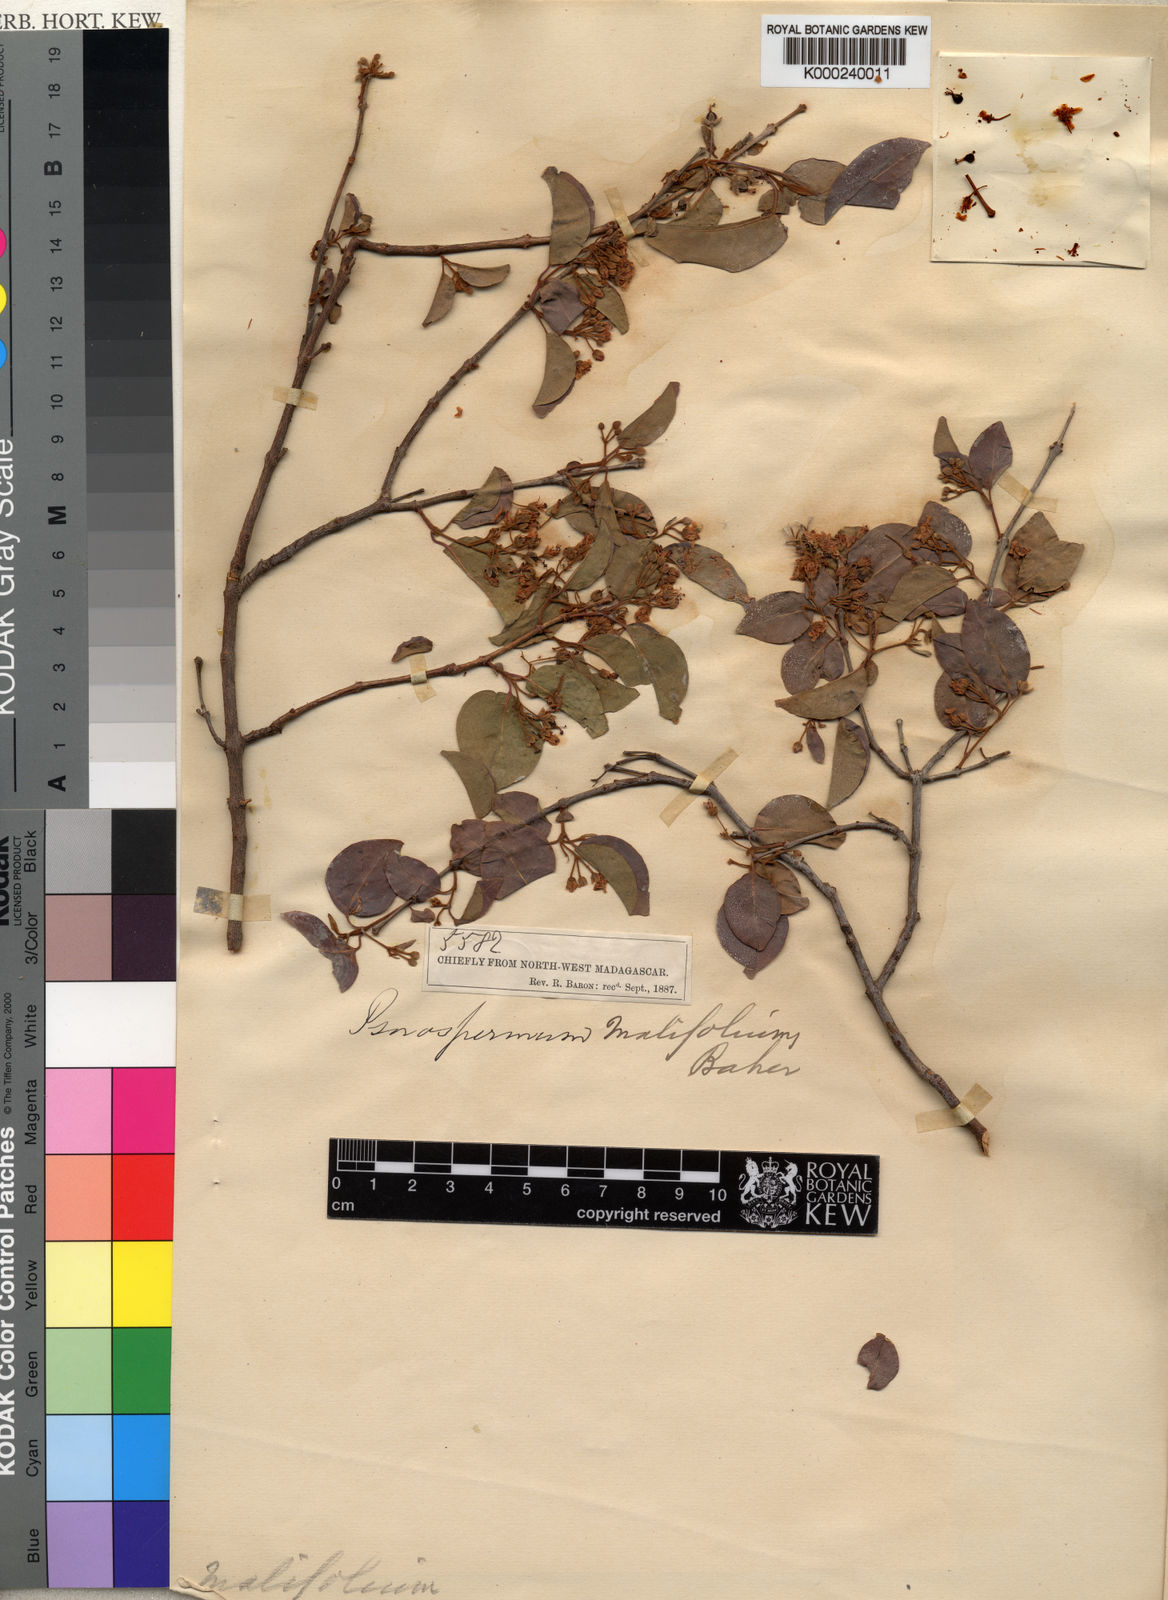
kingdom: Plantae
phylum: Tracheophyta
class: Magnoliopsida
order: Malpighiales
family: Hypericaceae
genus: Psorospermum
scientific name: Psorospermum malifolium
